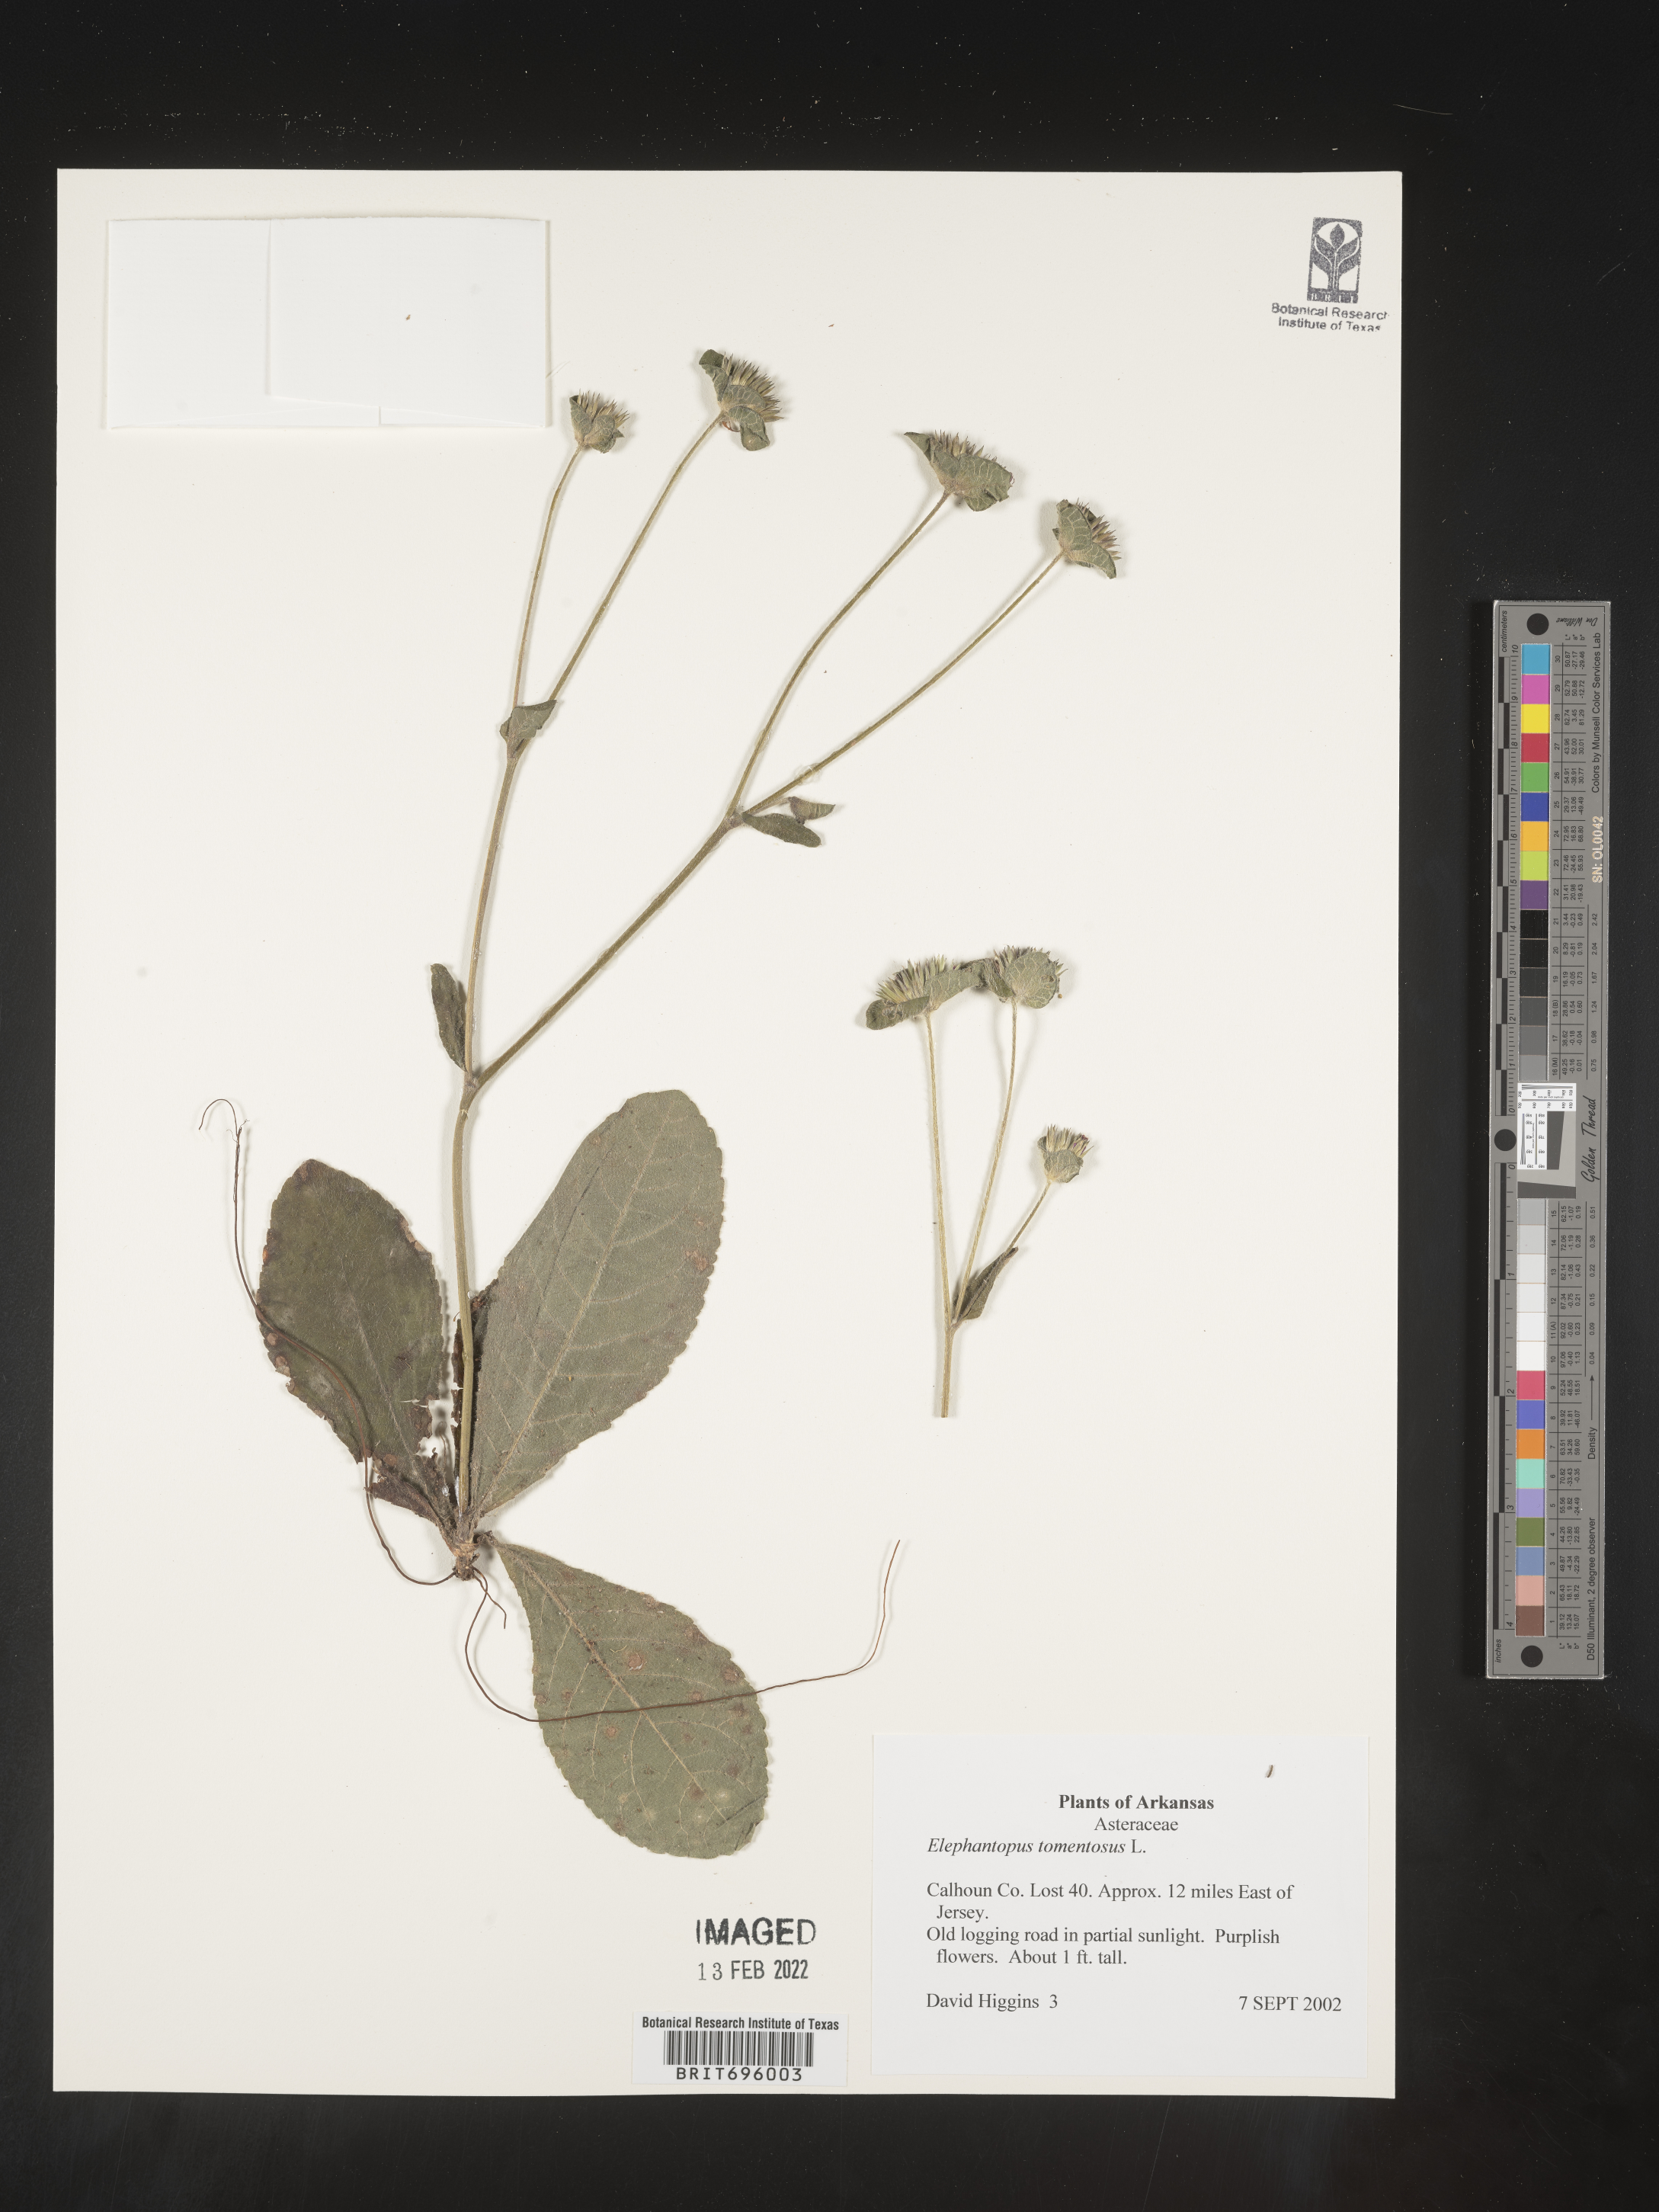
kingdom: Plantae
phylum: Tracheophyta
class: Magnoliopsida
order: Asterales
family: Asteraceae
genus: Elephantopus
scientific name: Elephantopus tomentosus
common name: Tobacco-weed
